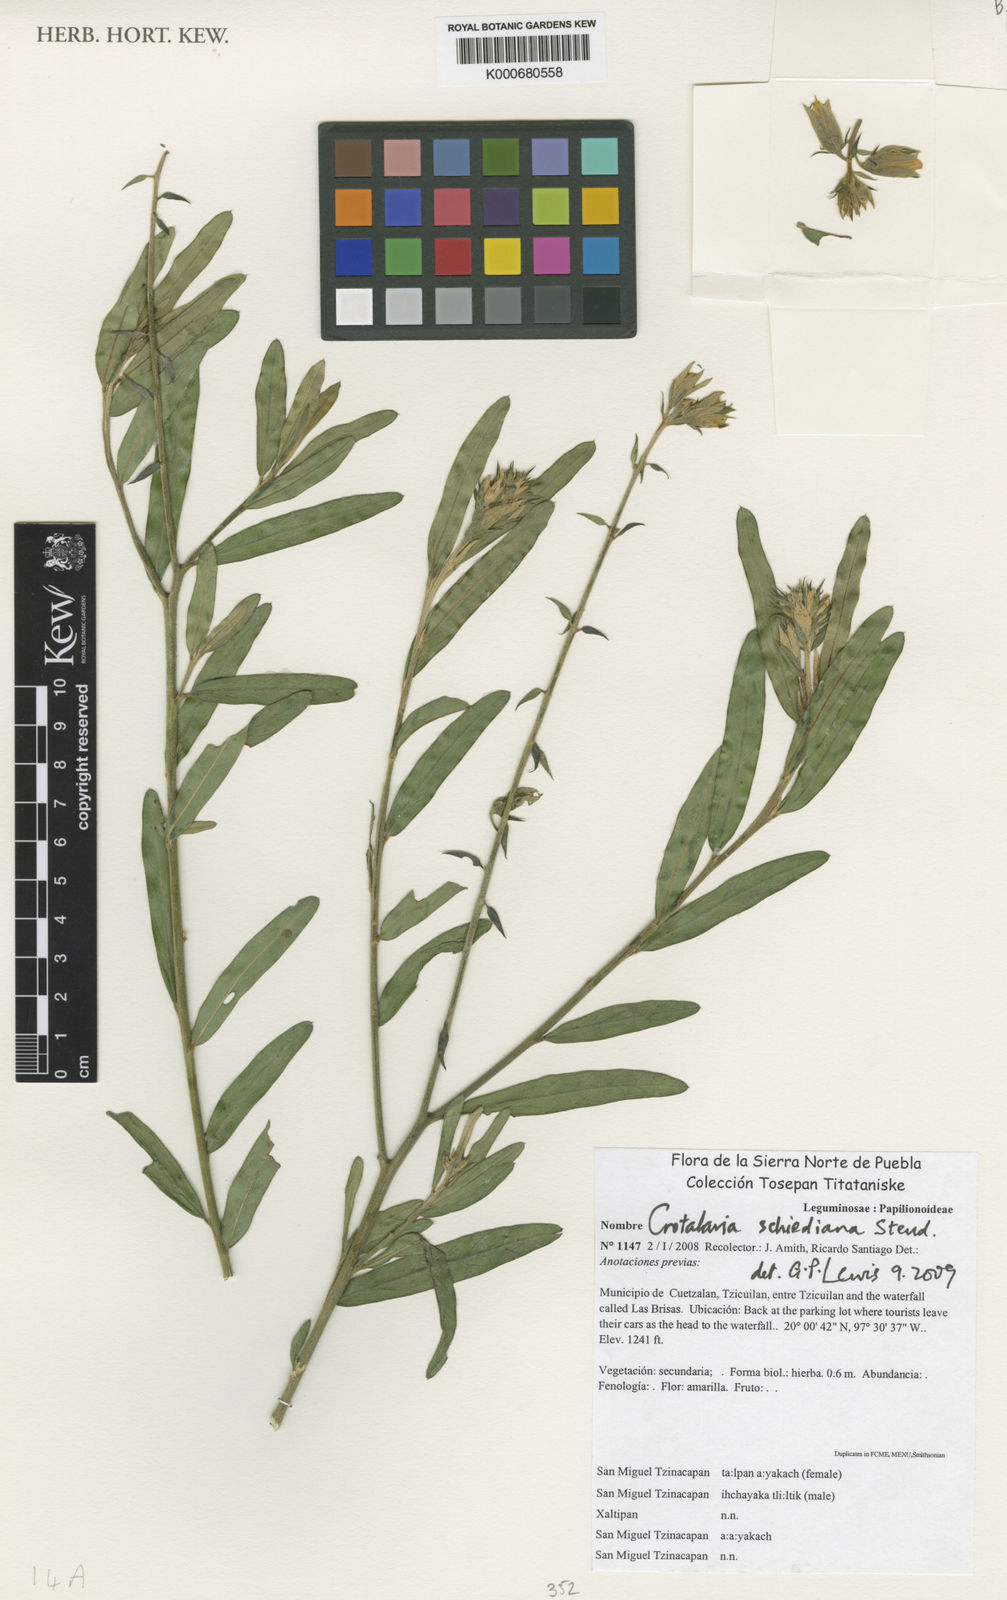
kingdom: Plantae
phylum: Tracheophyta
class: Magnoliopsida
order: Fabales
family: Fabaceae
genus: Crotalaria
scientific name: Crotalaria
